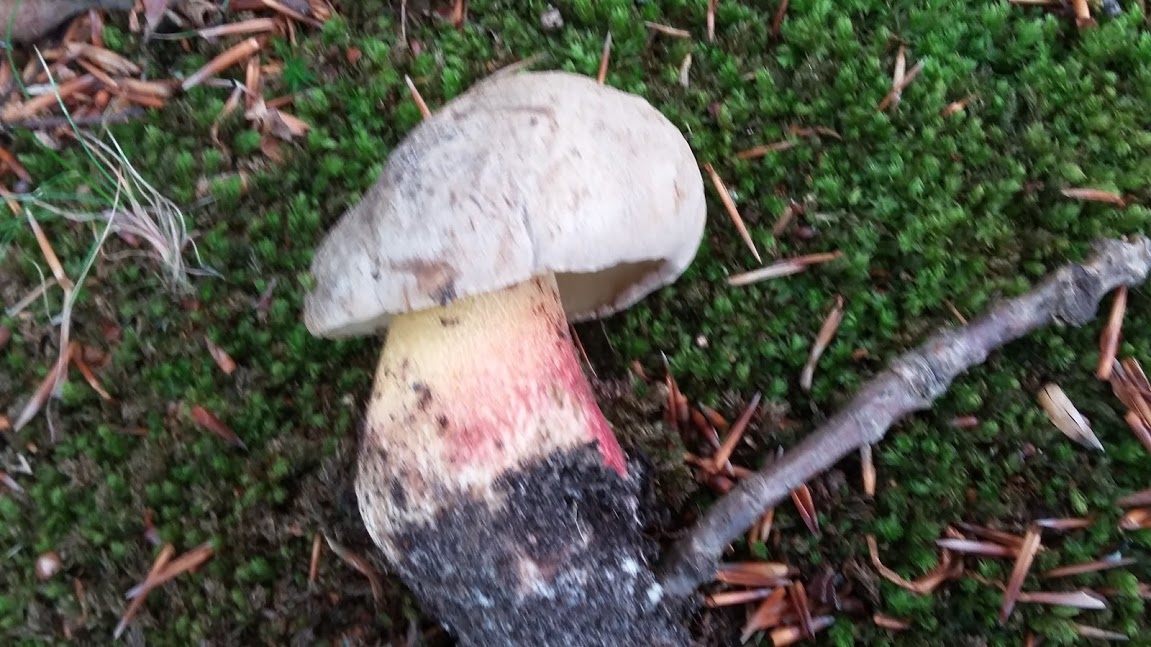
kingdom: Fungi
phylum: Basidiomycota
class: Agaricomycetes
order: Boletales
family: Boletaceae
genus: Caloboletus
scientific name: Caloboletus calopus
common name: skønfodet rørhat
